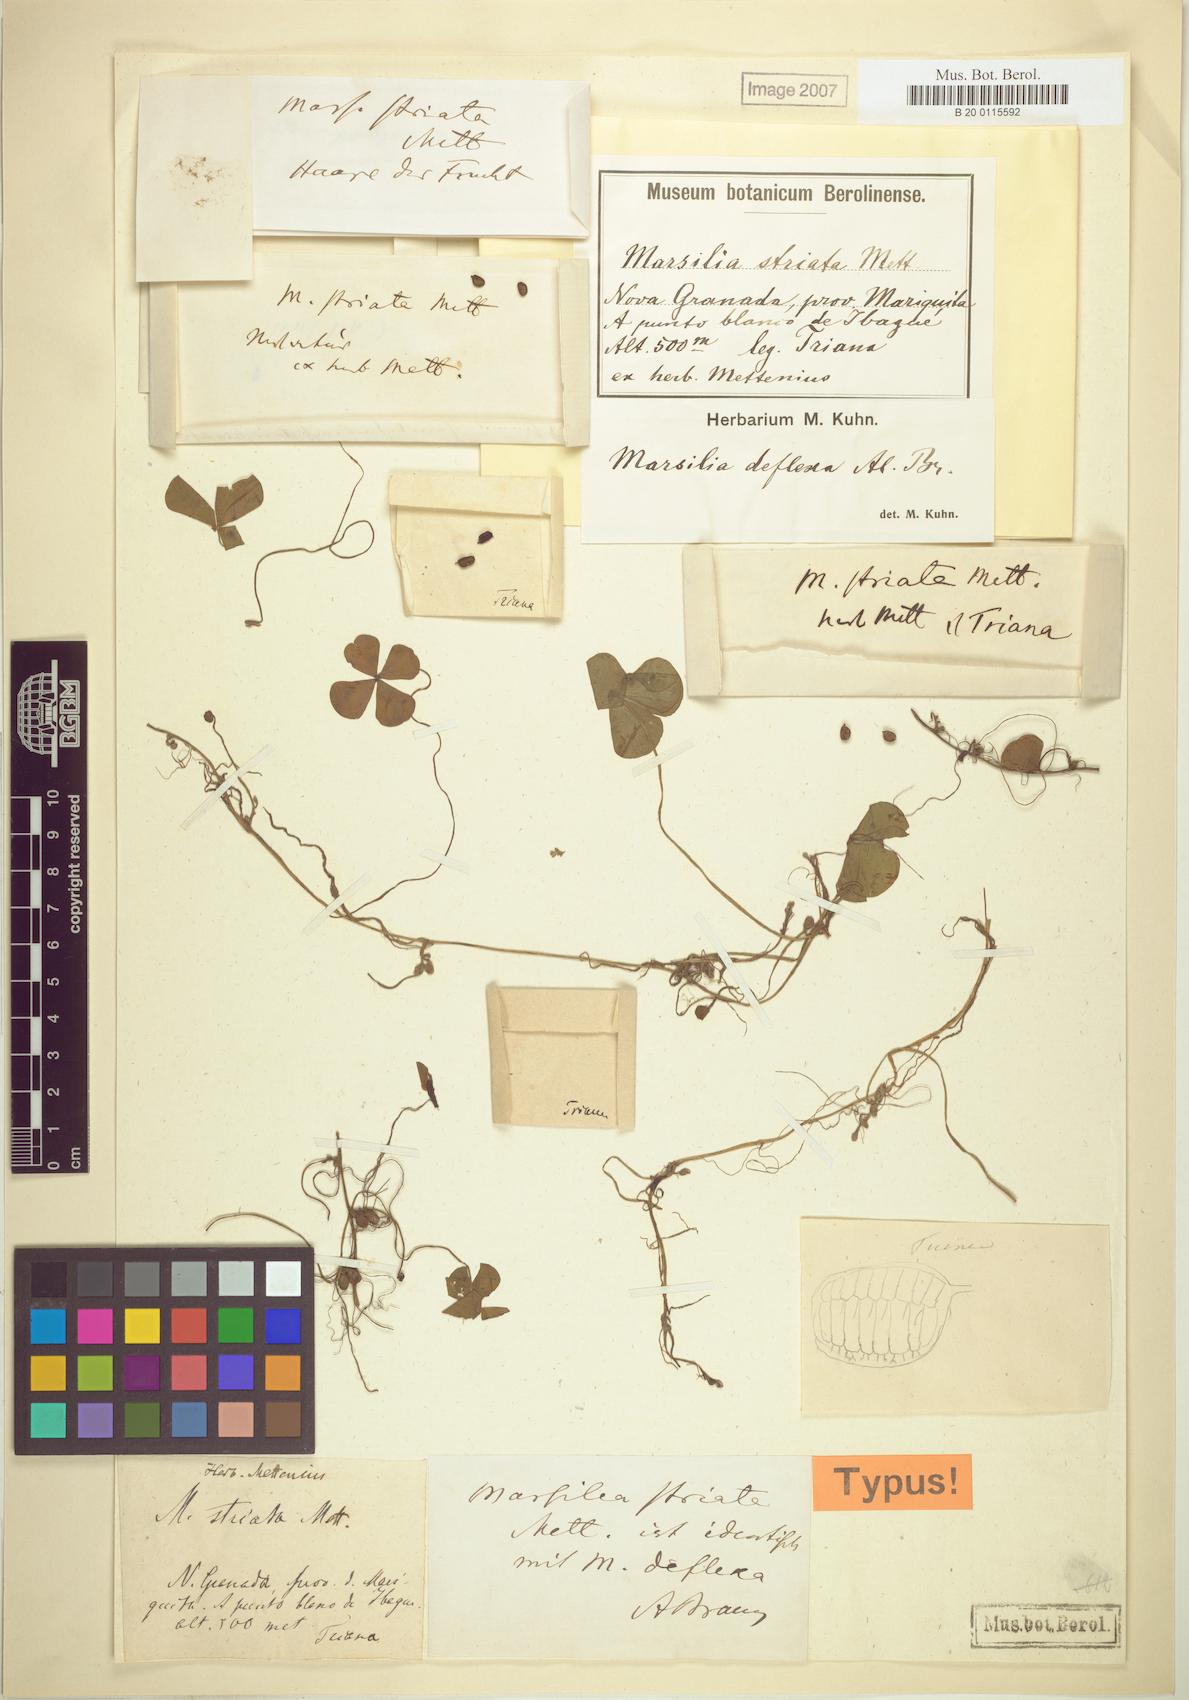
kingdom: Plantae
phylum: Tracheophyta
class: Polypodiopsida
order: Salviniales
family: Marsileaceae
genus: Marsilea
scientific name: Marsilea deflexa
